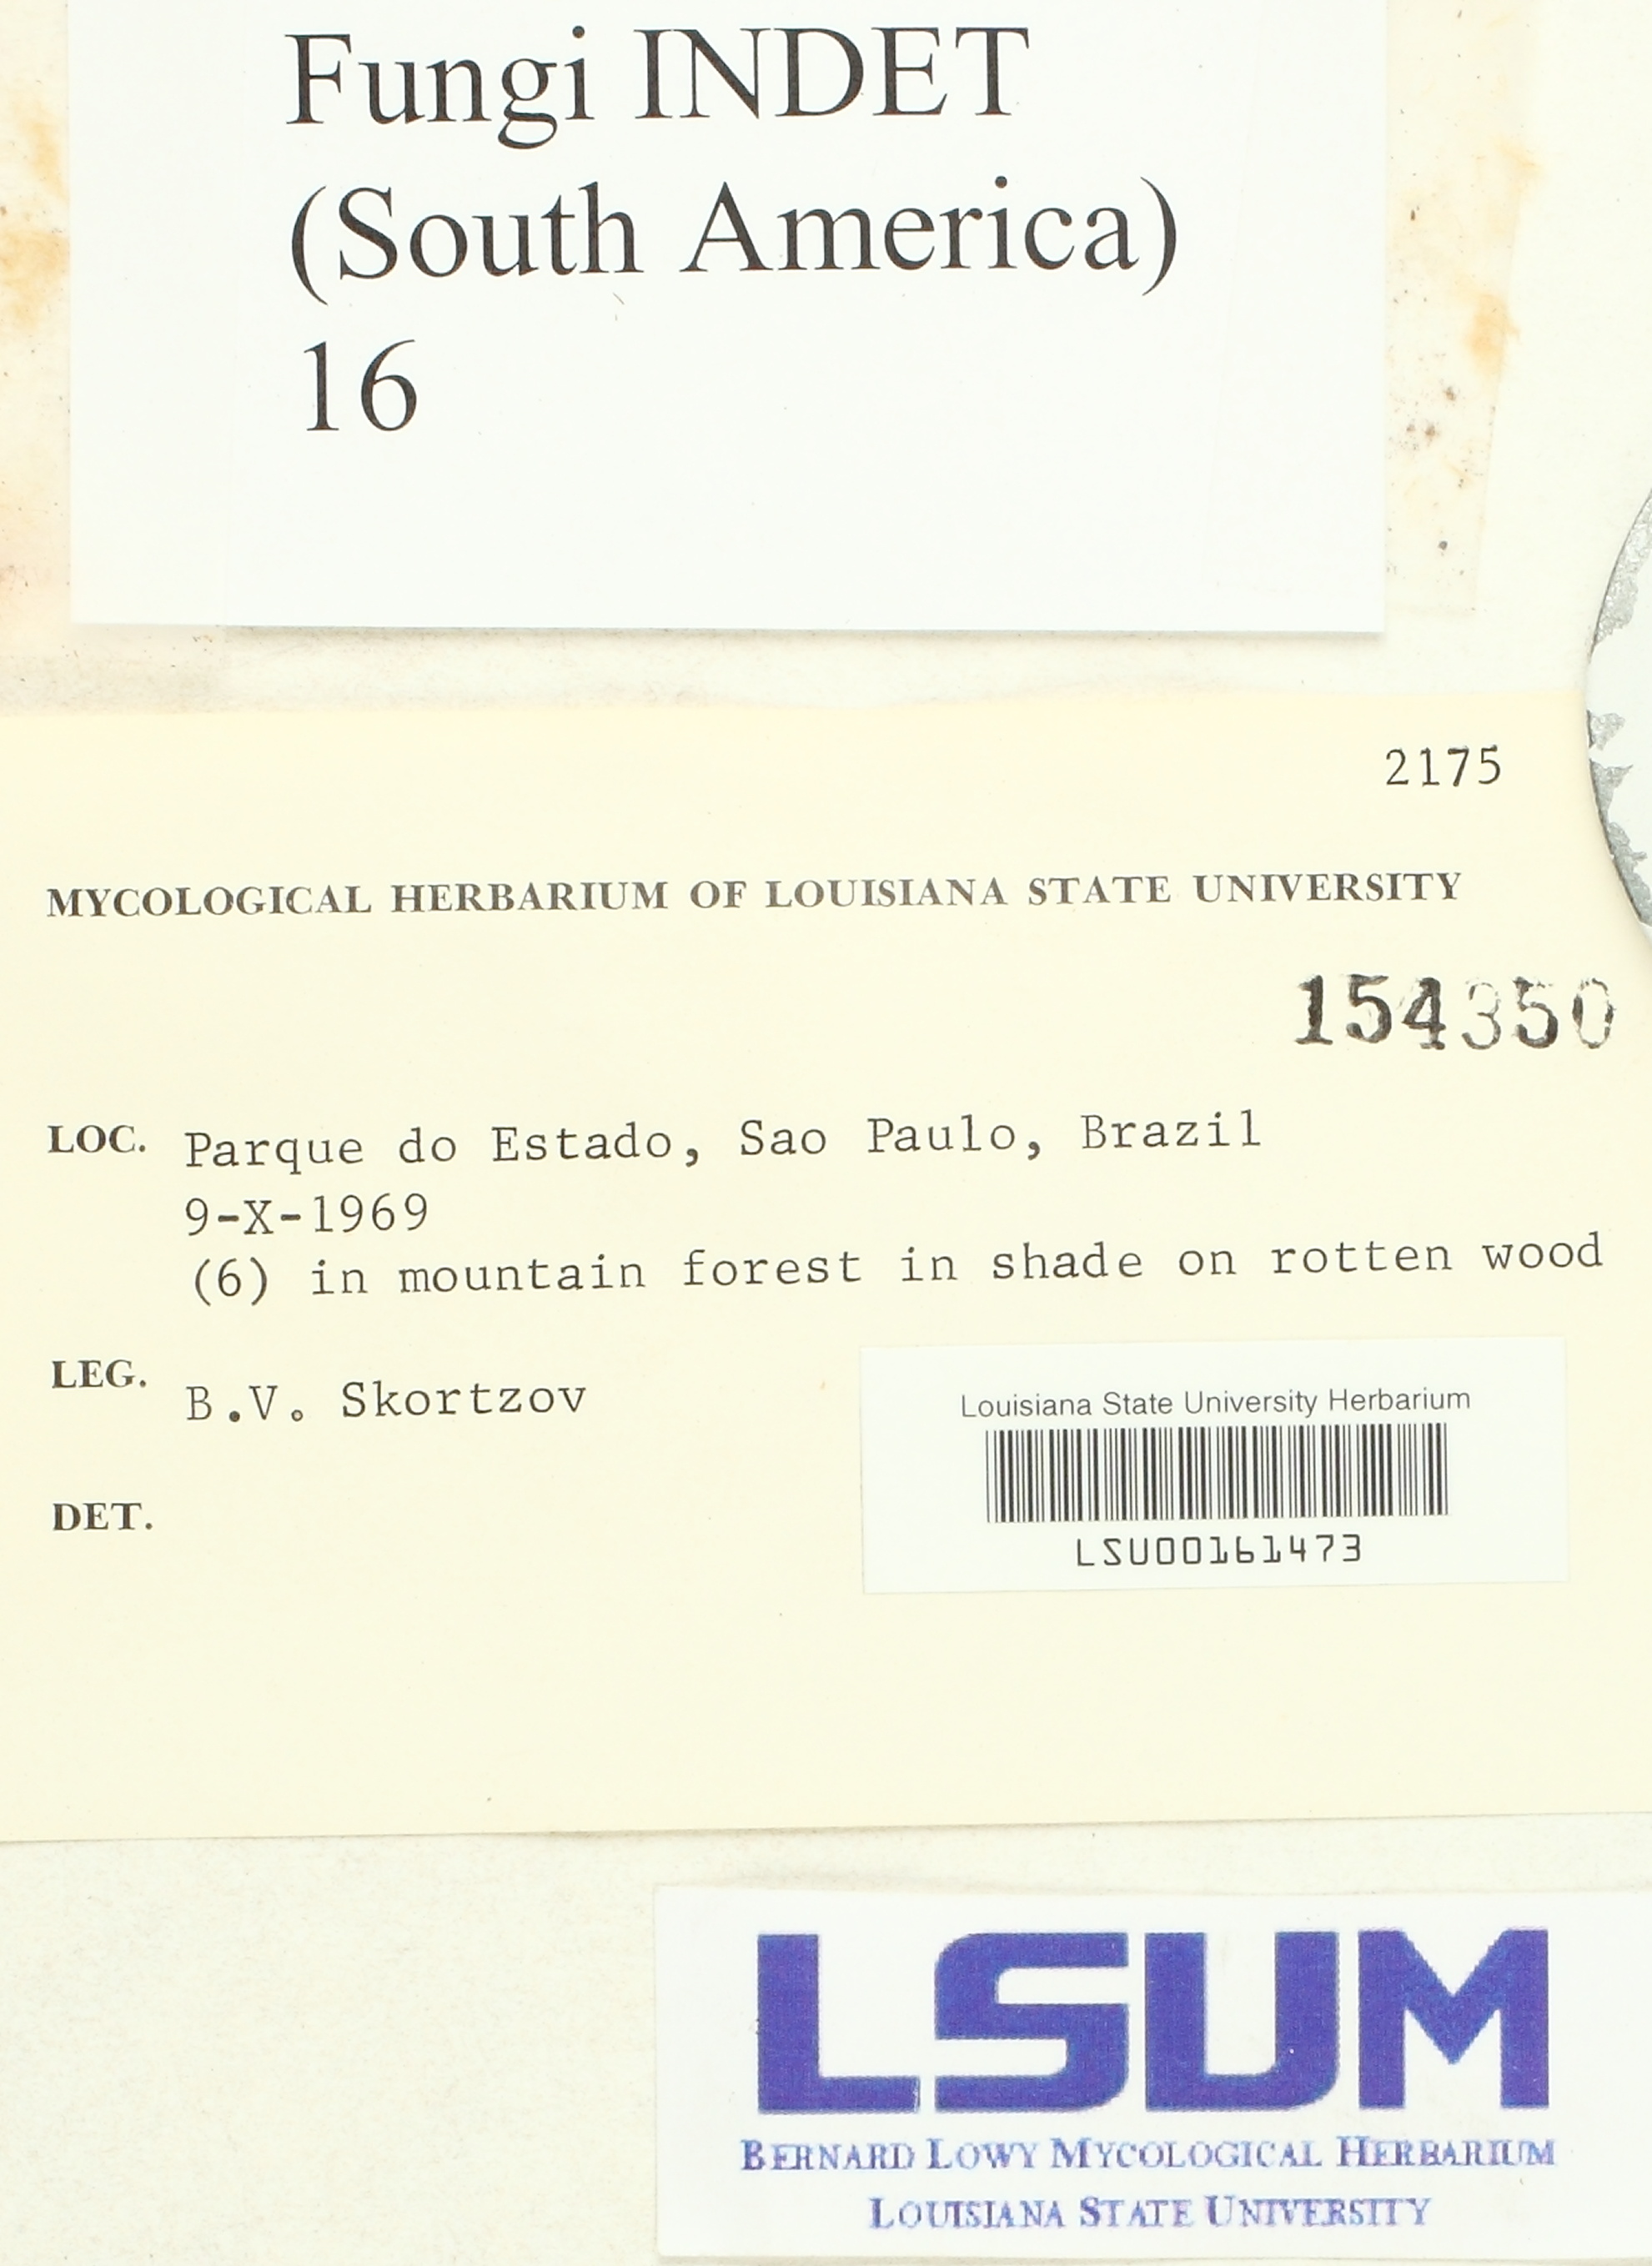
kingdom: Fungi
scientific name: Fungi
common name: Fungi
